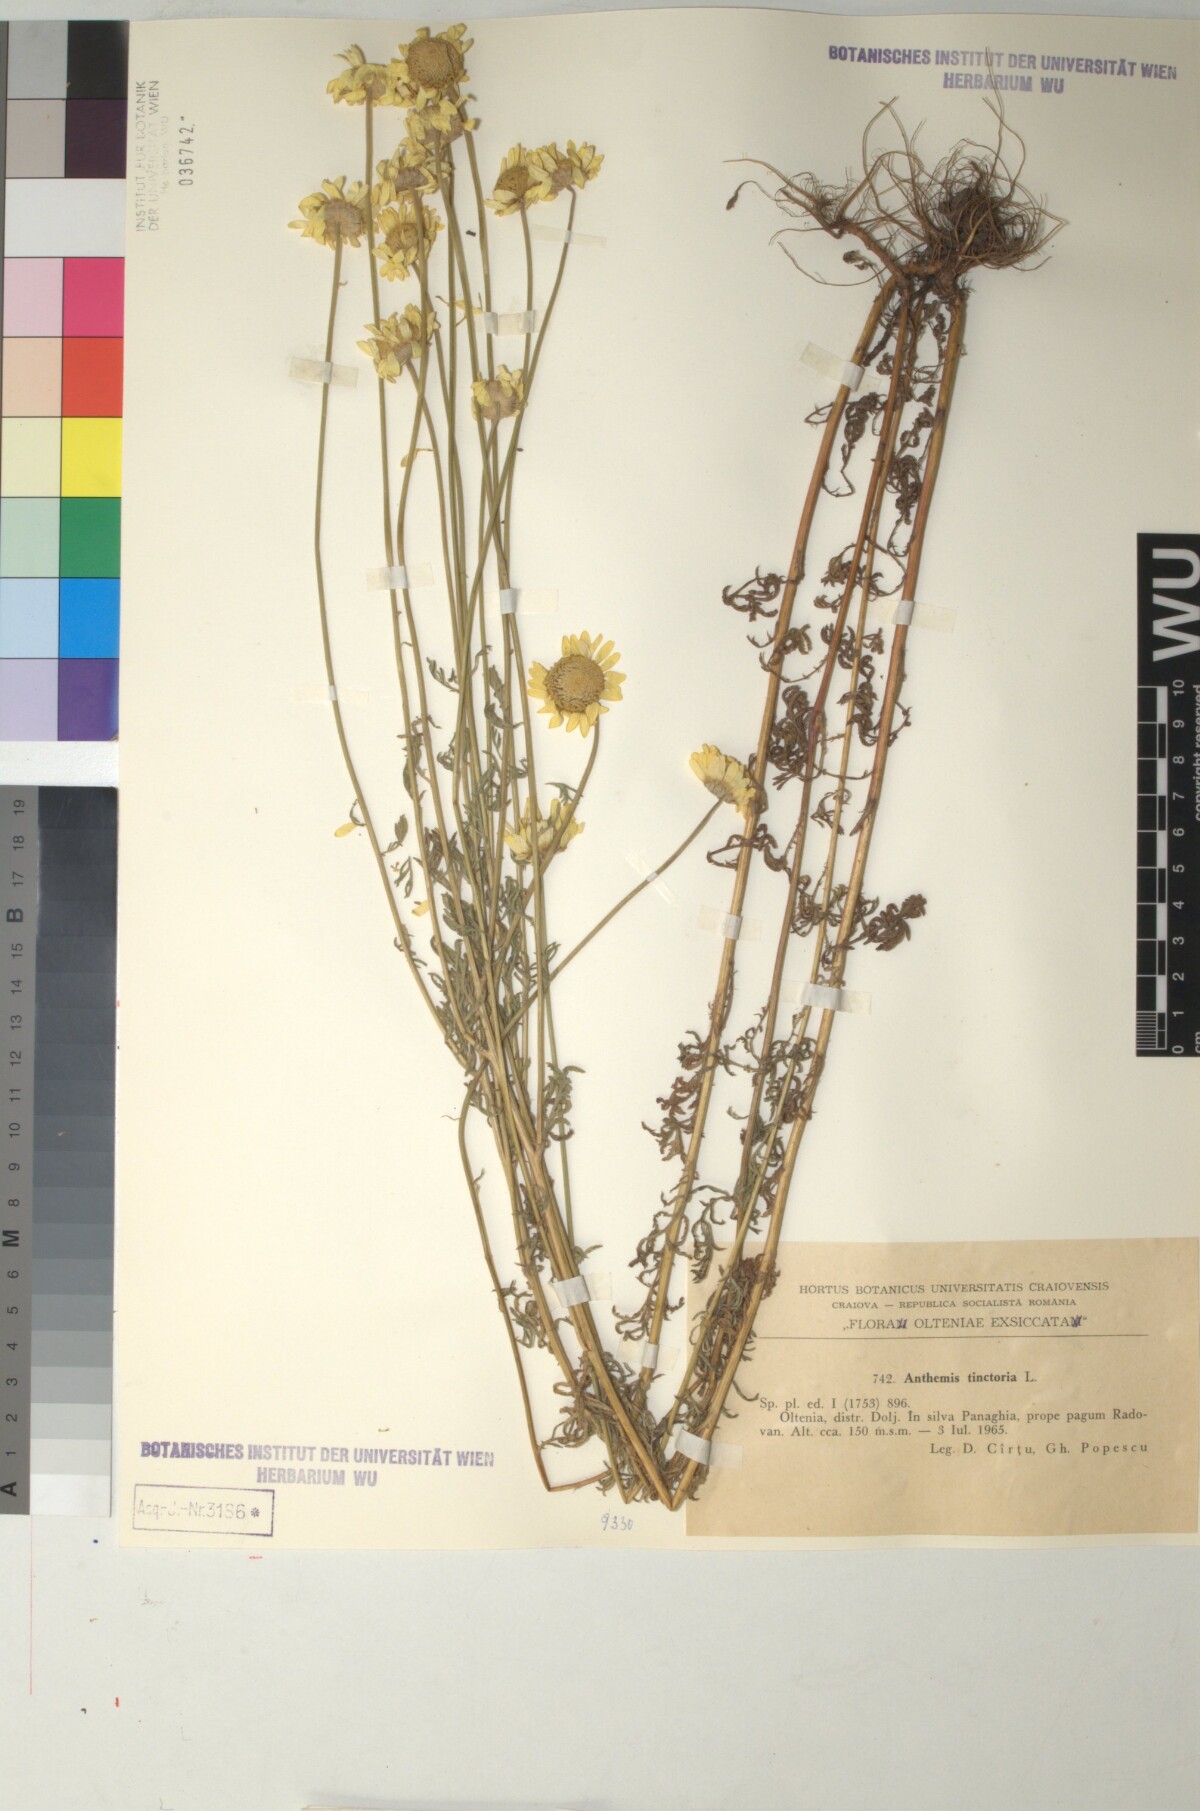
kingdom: Plantae
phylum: Tracheophyta
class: Magnoliopsida
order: Asterales
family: Asteraceae
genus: Cota
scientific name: Cota tinctoria
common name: Golden chamomile
